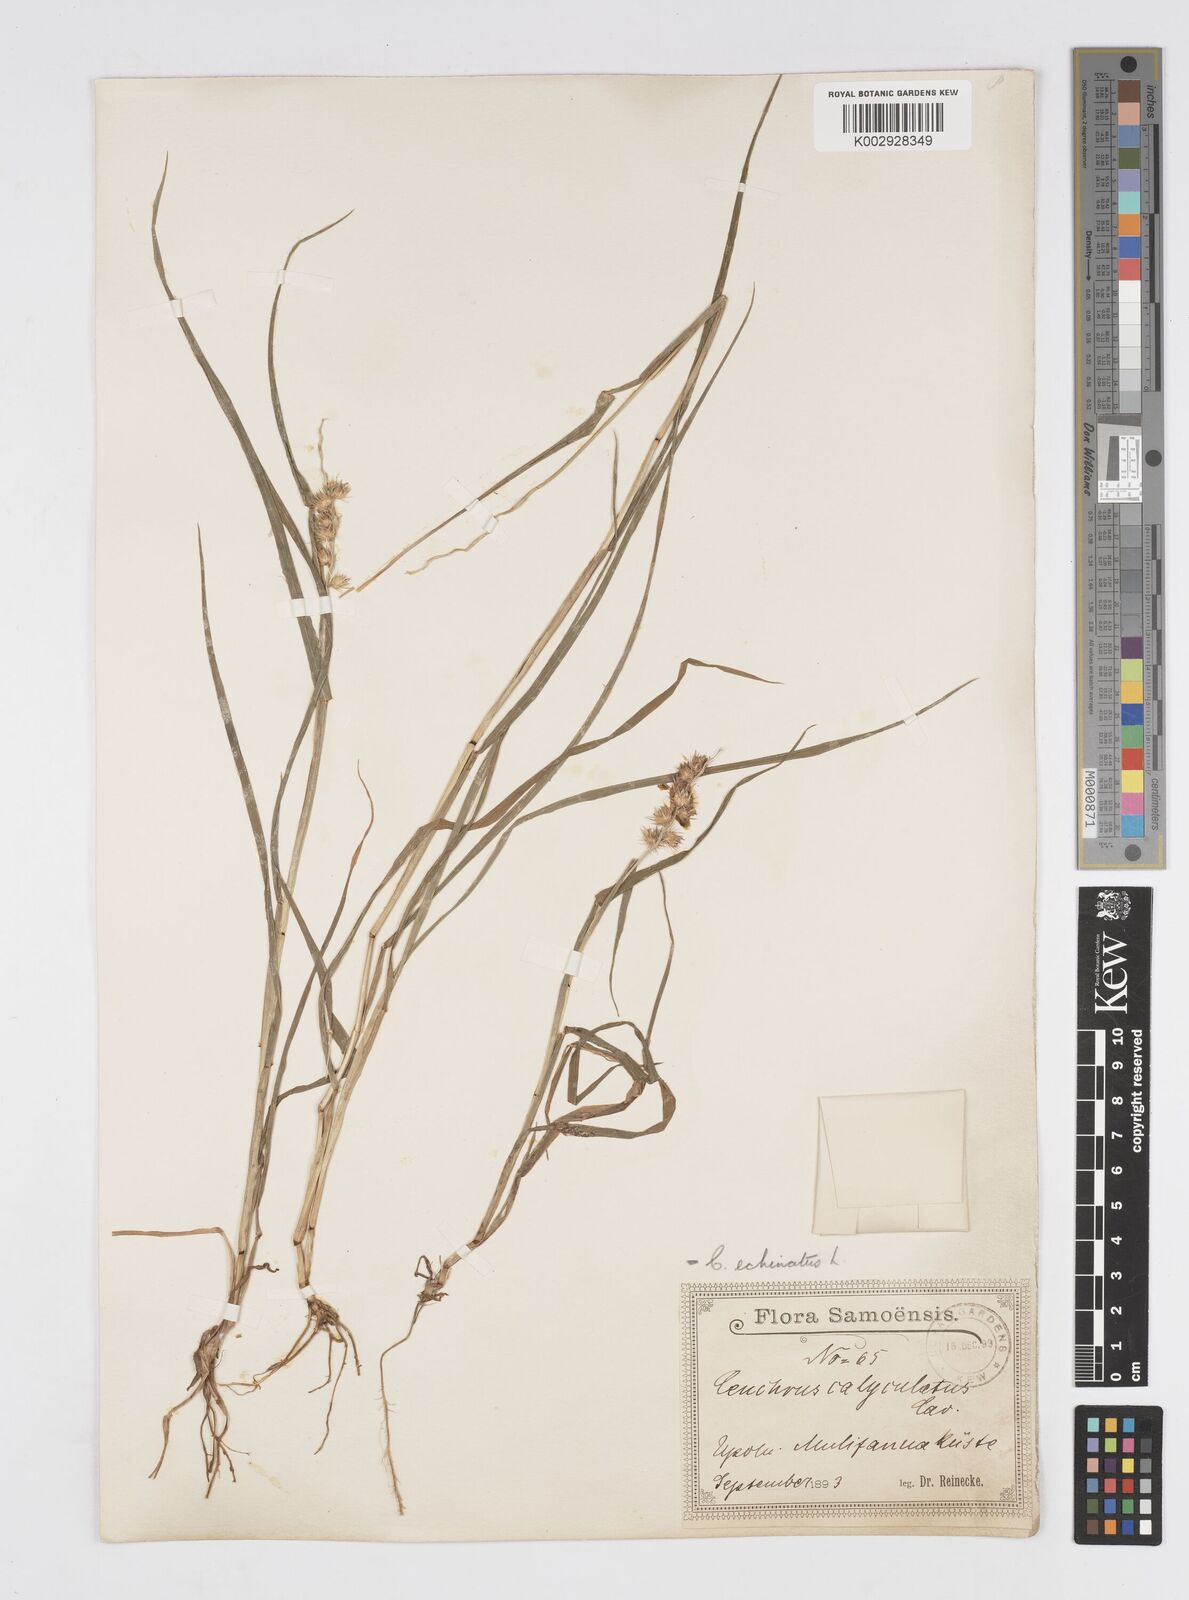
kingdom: Plantae
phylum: Tracheophyta
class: Liliopsida
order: Poales
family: Poaceae
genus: Cenchrus
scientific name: Cenchrus echinatus
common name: Southern sandbur
